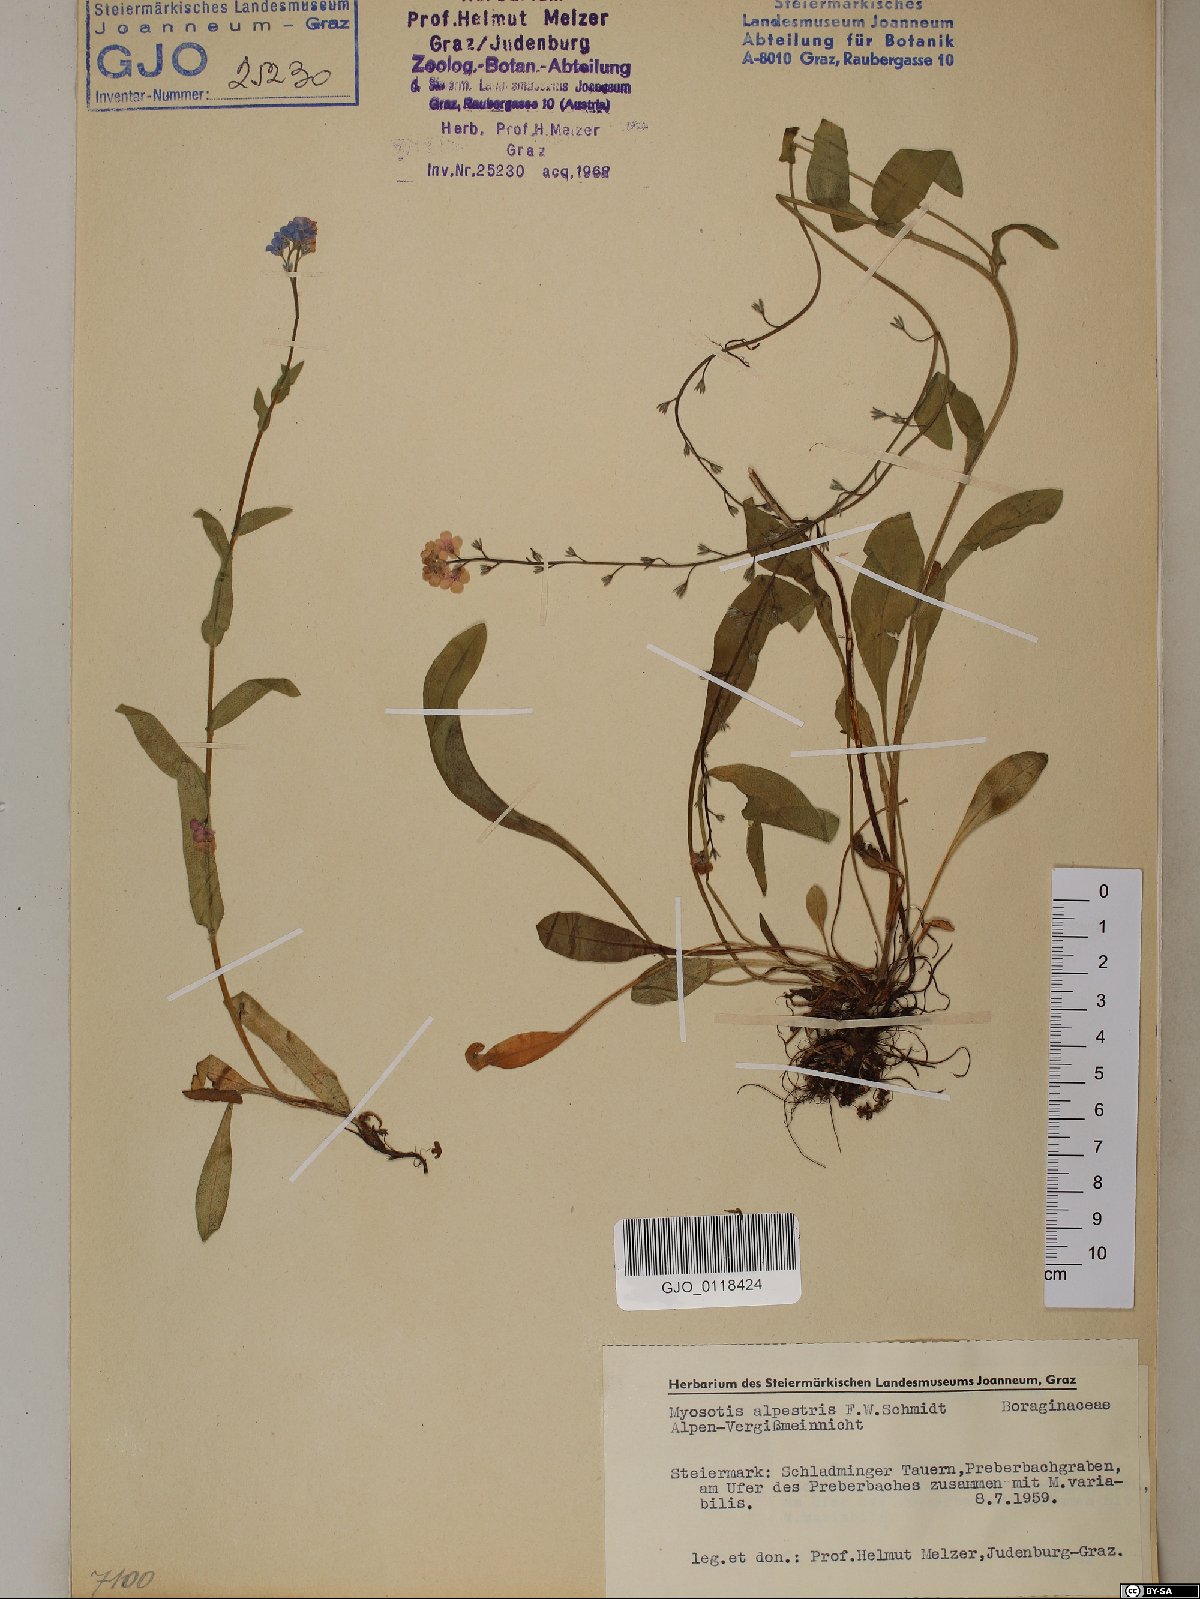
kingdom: Plantae
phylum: Tracheophyta
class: Magnoliopsida
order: Boraginales
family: Boraginaceae
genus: Myosotis
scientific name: Myosotis alpestris
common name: Alpine forget-me-not
